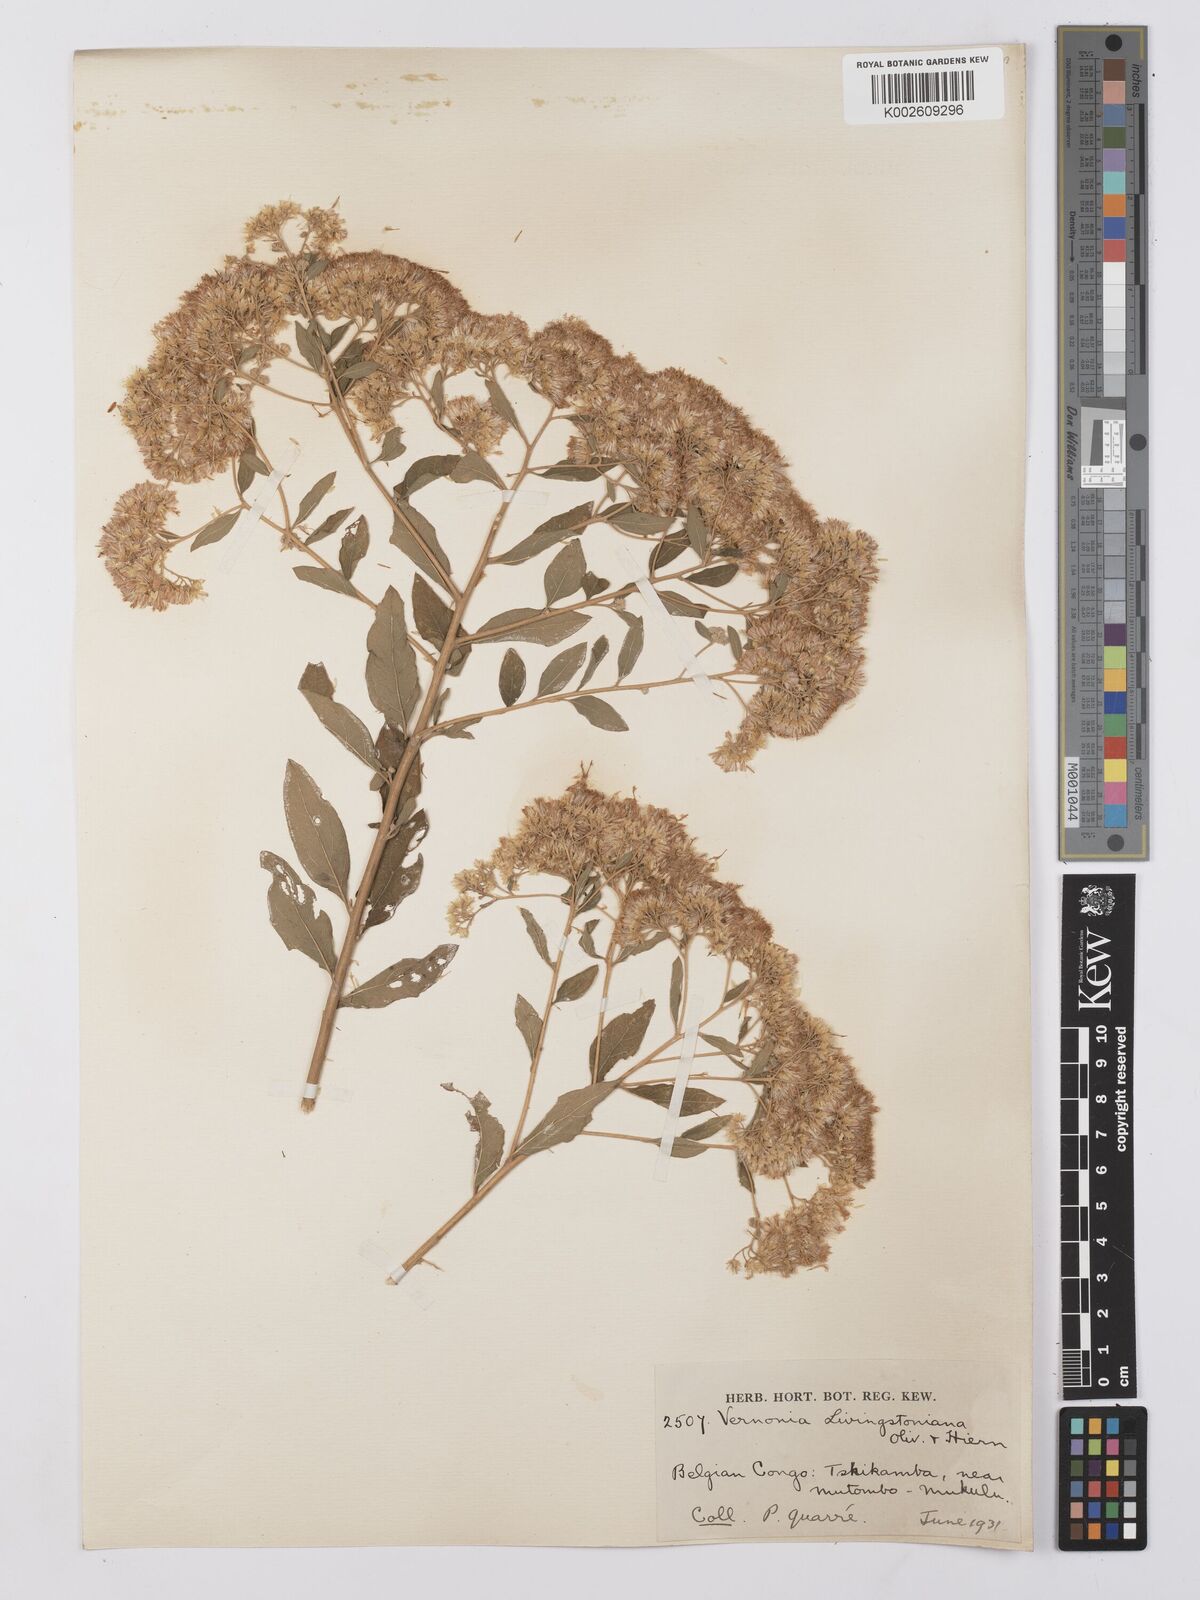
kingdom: Plantae
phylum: Tracheophyta
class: Magnoliopsida
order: Asterales
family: Asteraceae
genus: Gymnanthemum
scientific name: Gymnanthemum thomsonianum
